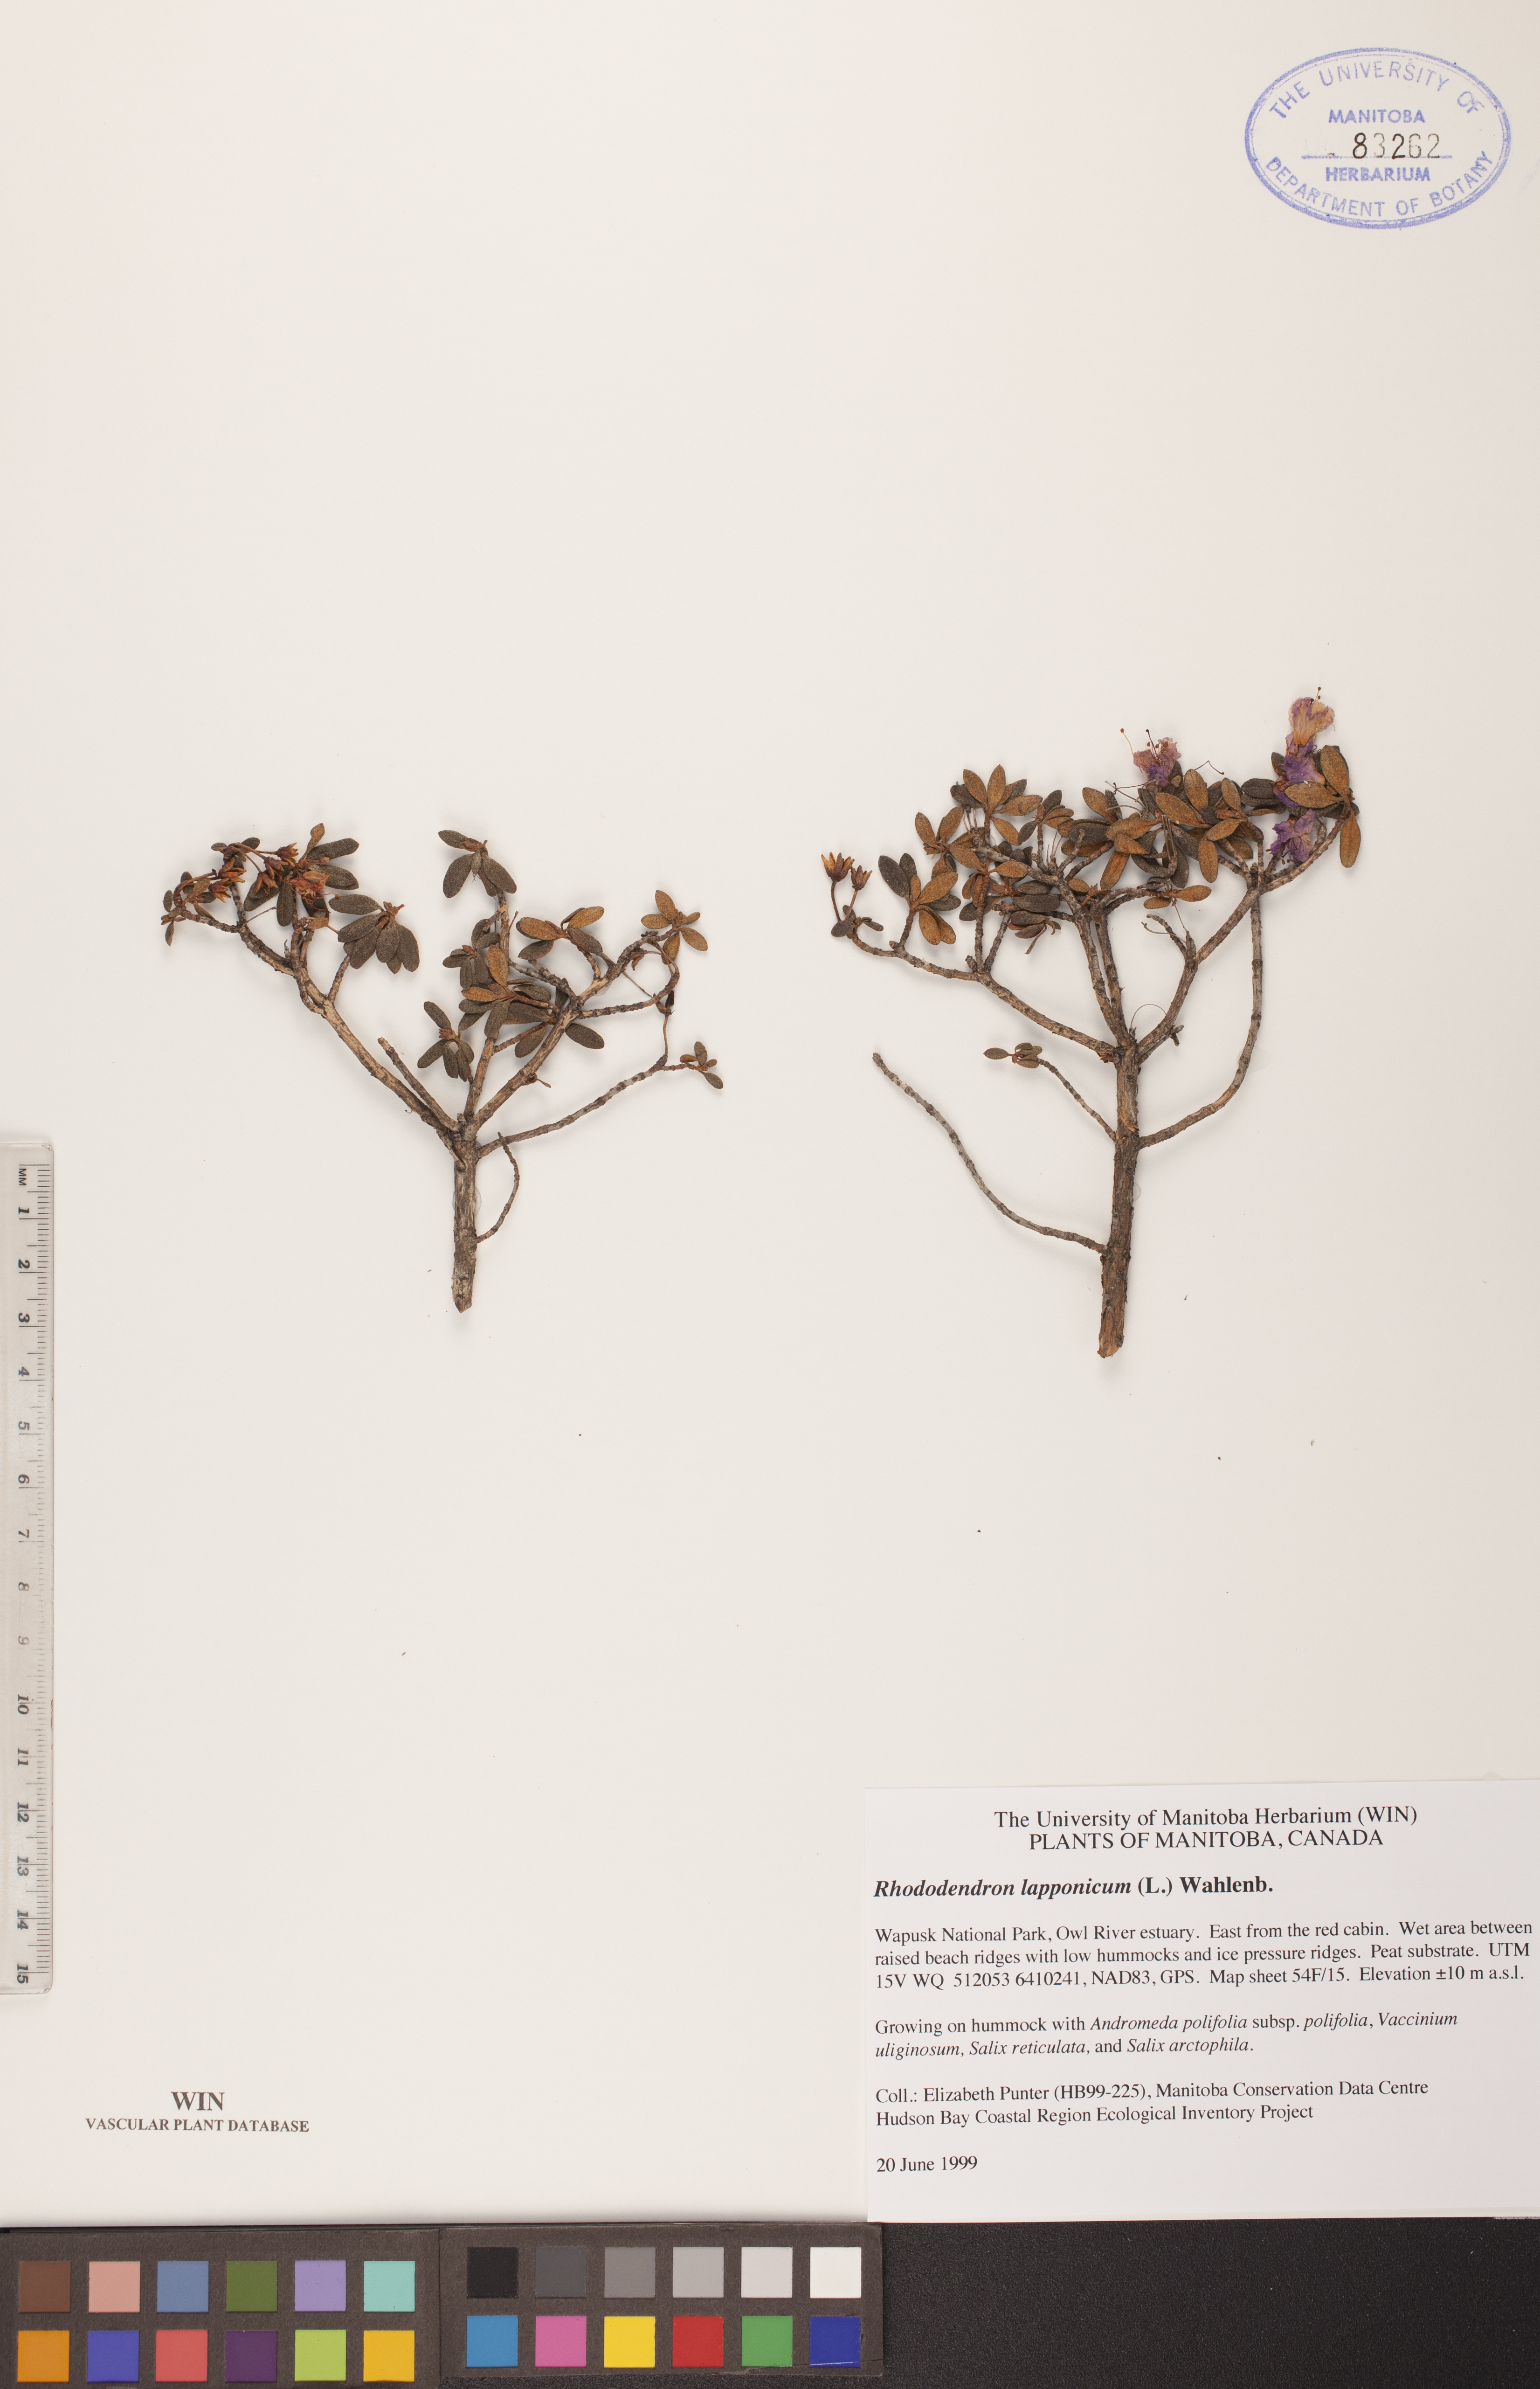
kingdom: Plantae
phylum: Tracheophyta
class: Magnoliopsida
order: Ericales
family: Ericaceae
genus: Rhododendron
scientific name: Rhododendron lapponicum
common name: Lapland rhododendron
